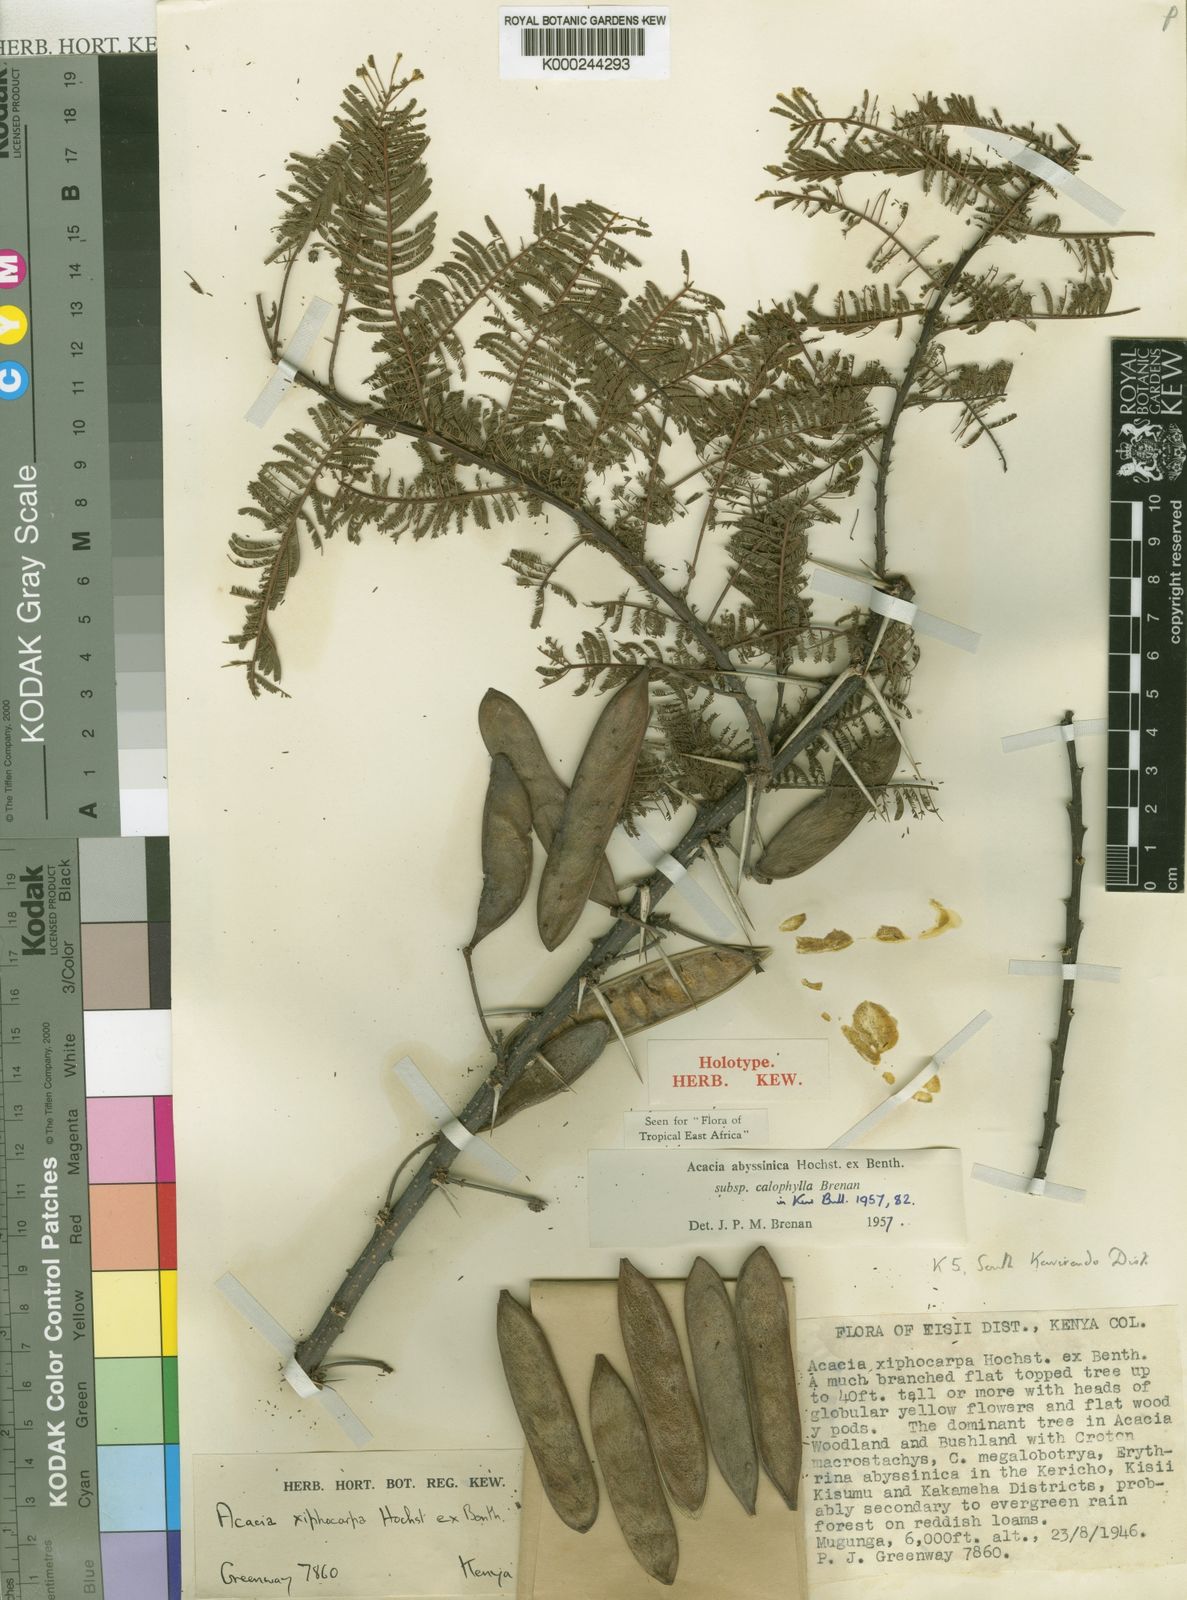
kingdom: Plantae
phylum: Tracheophyta
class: Magnoliopsida
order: Fabales
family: Fabaceae
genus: Vachellia
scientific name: Vachellia abyssinica
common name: Nyanga flat-top
